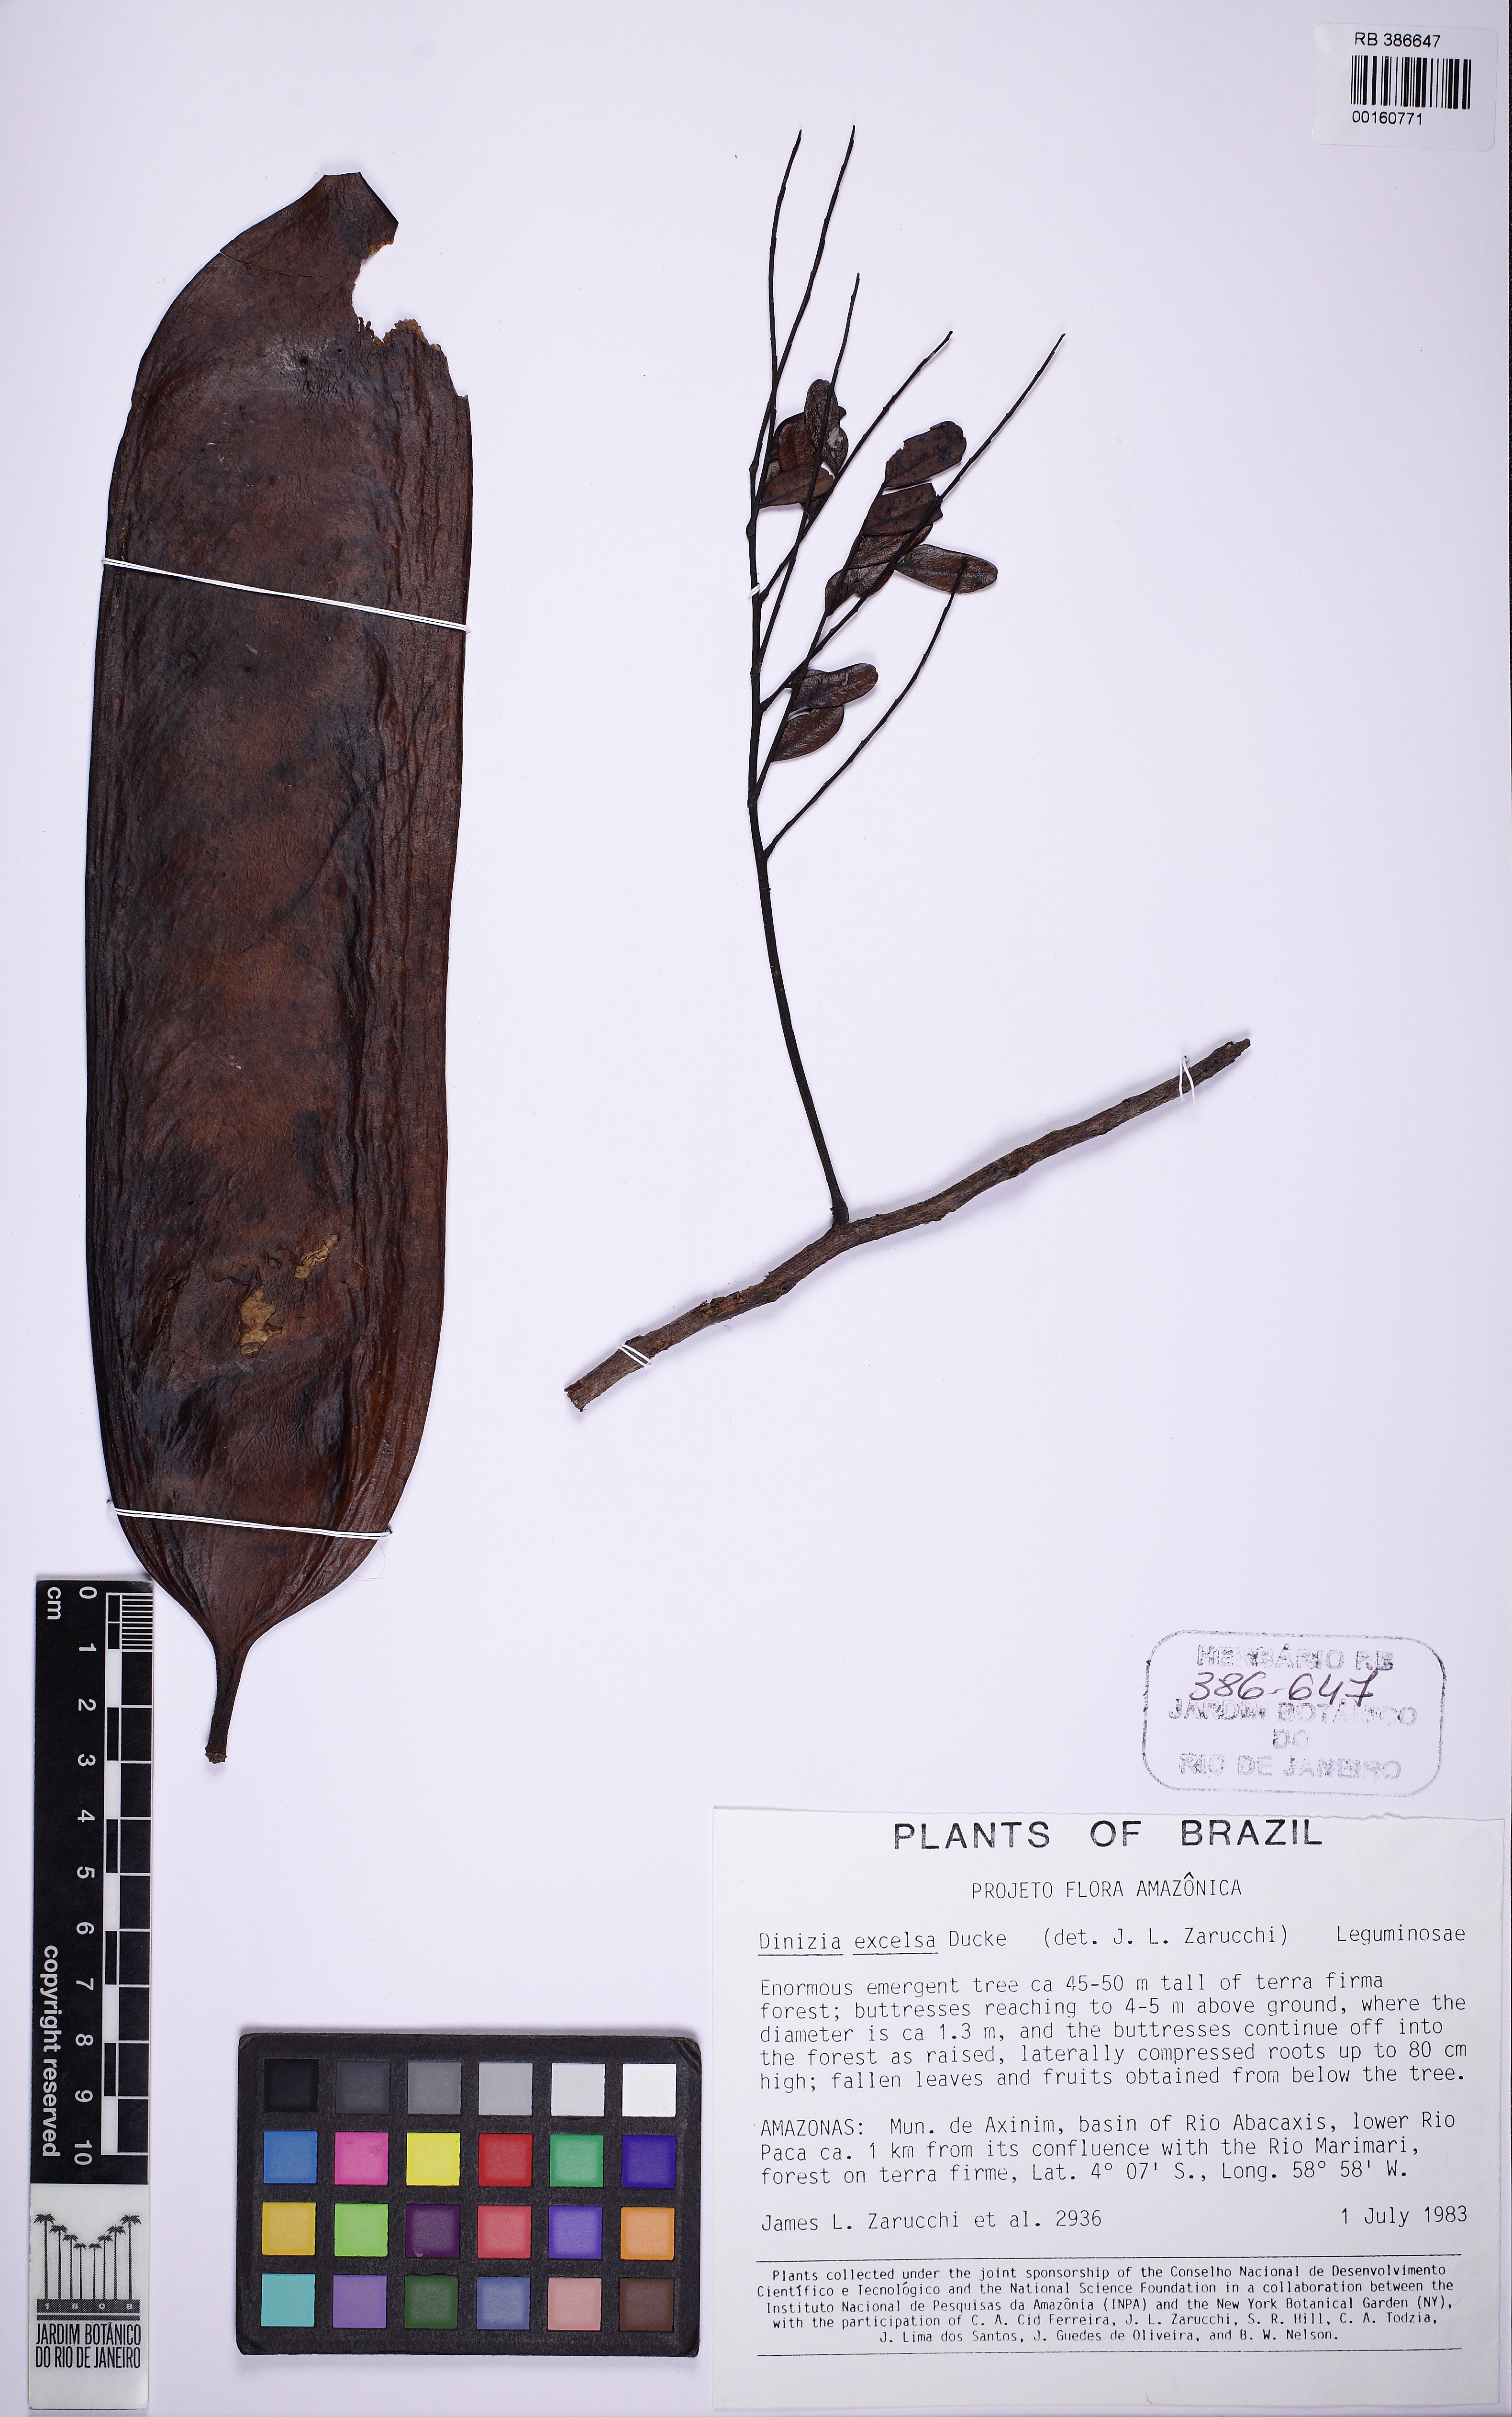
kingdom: Plantae
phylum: Tracheophyta
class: Magnoliopsida
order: Fabales
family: Fabaceae
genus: Dinizia
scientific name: Dinizia excelsa
